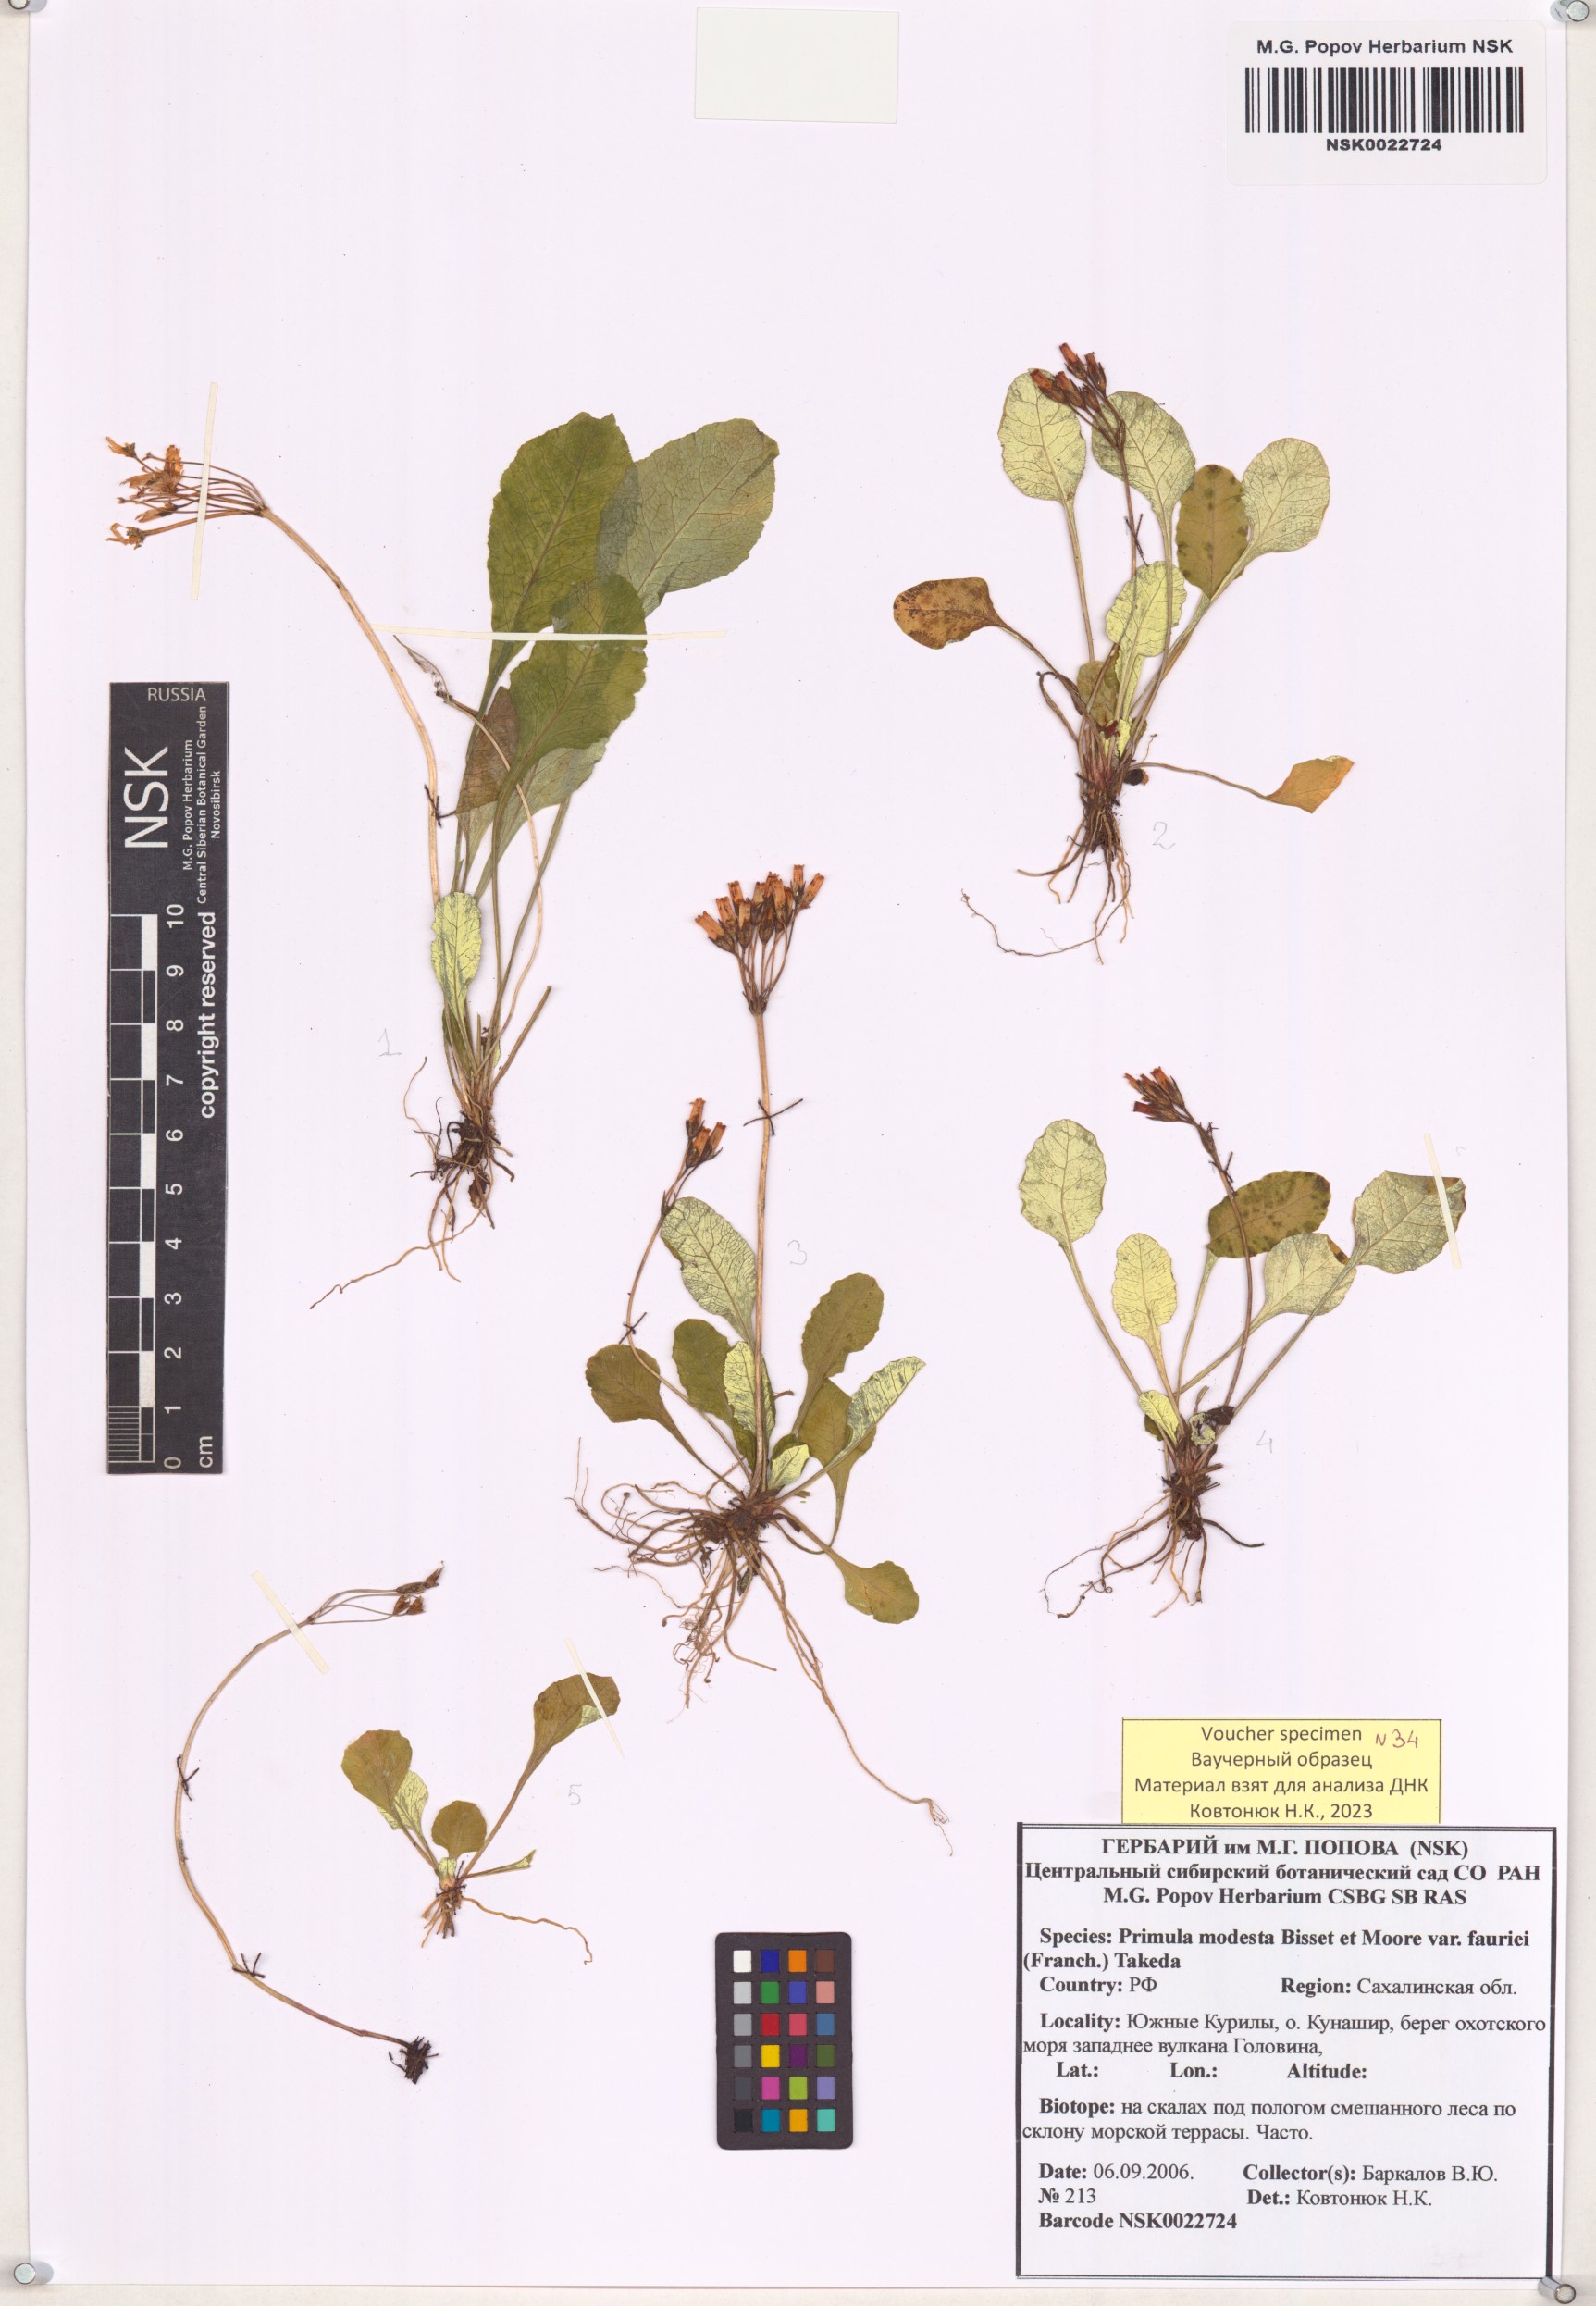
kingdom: Plantae
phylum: Tracheophyta
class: Magnoliopsida
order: Ericales
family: Primulaceae
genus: Primula
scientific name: Primula modesta
